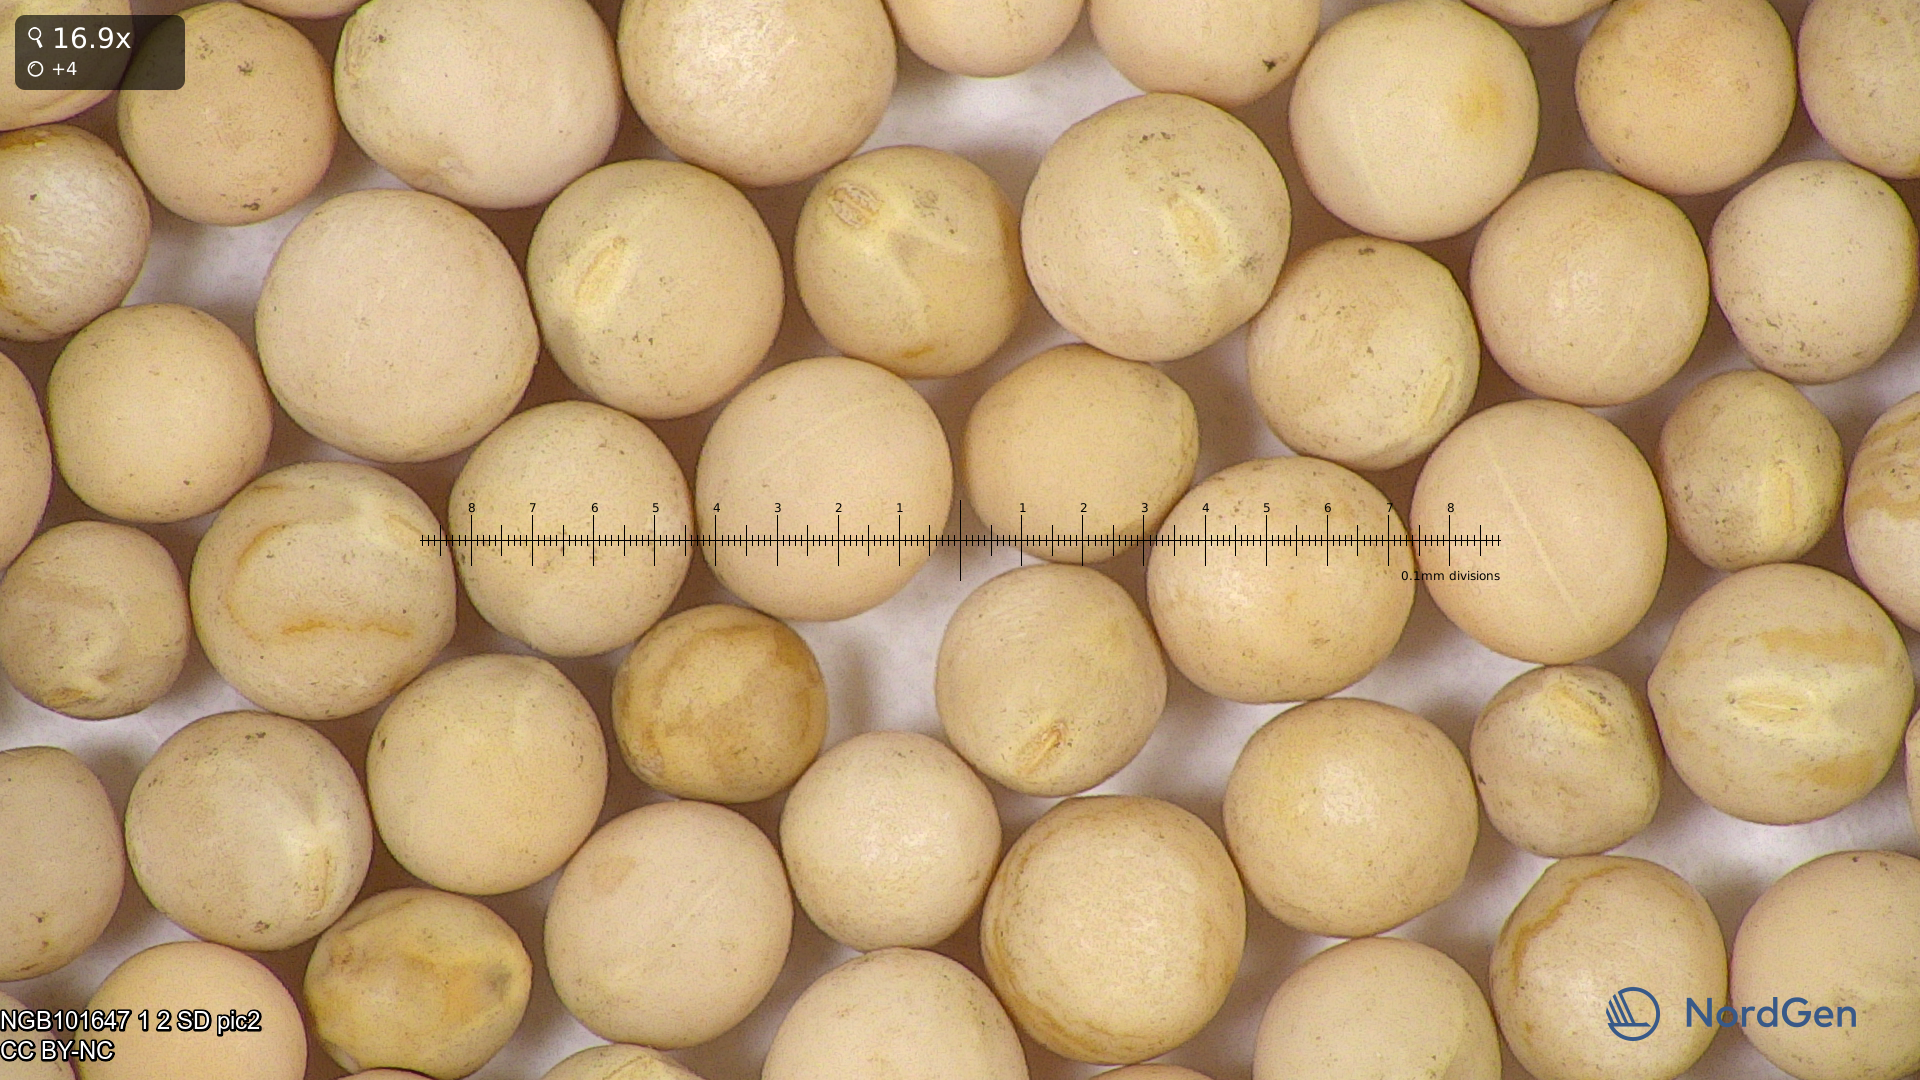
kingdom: Plantae
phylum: Tracheophyta
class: Magnoliopsida
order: Fabales
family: Fabaceae
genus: Lathyrus
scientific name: Lathyrus oleraceus
